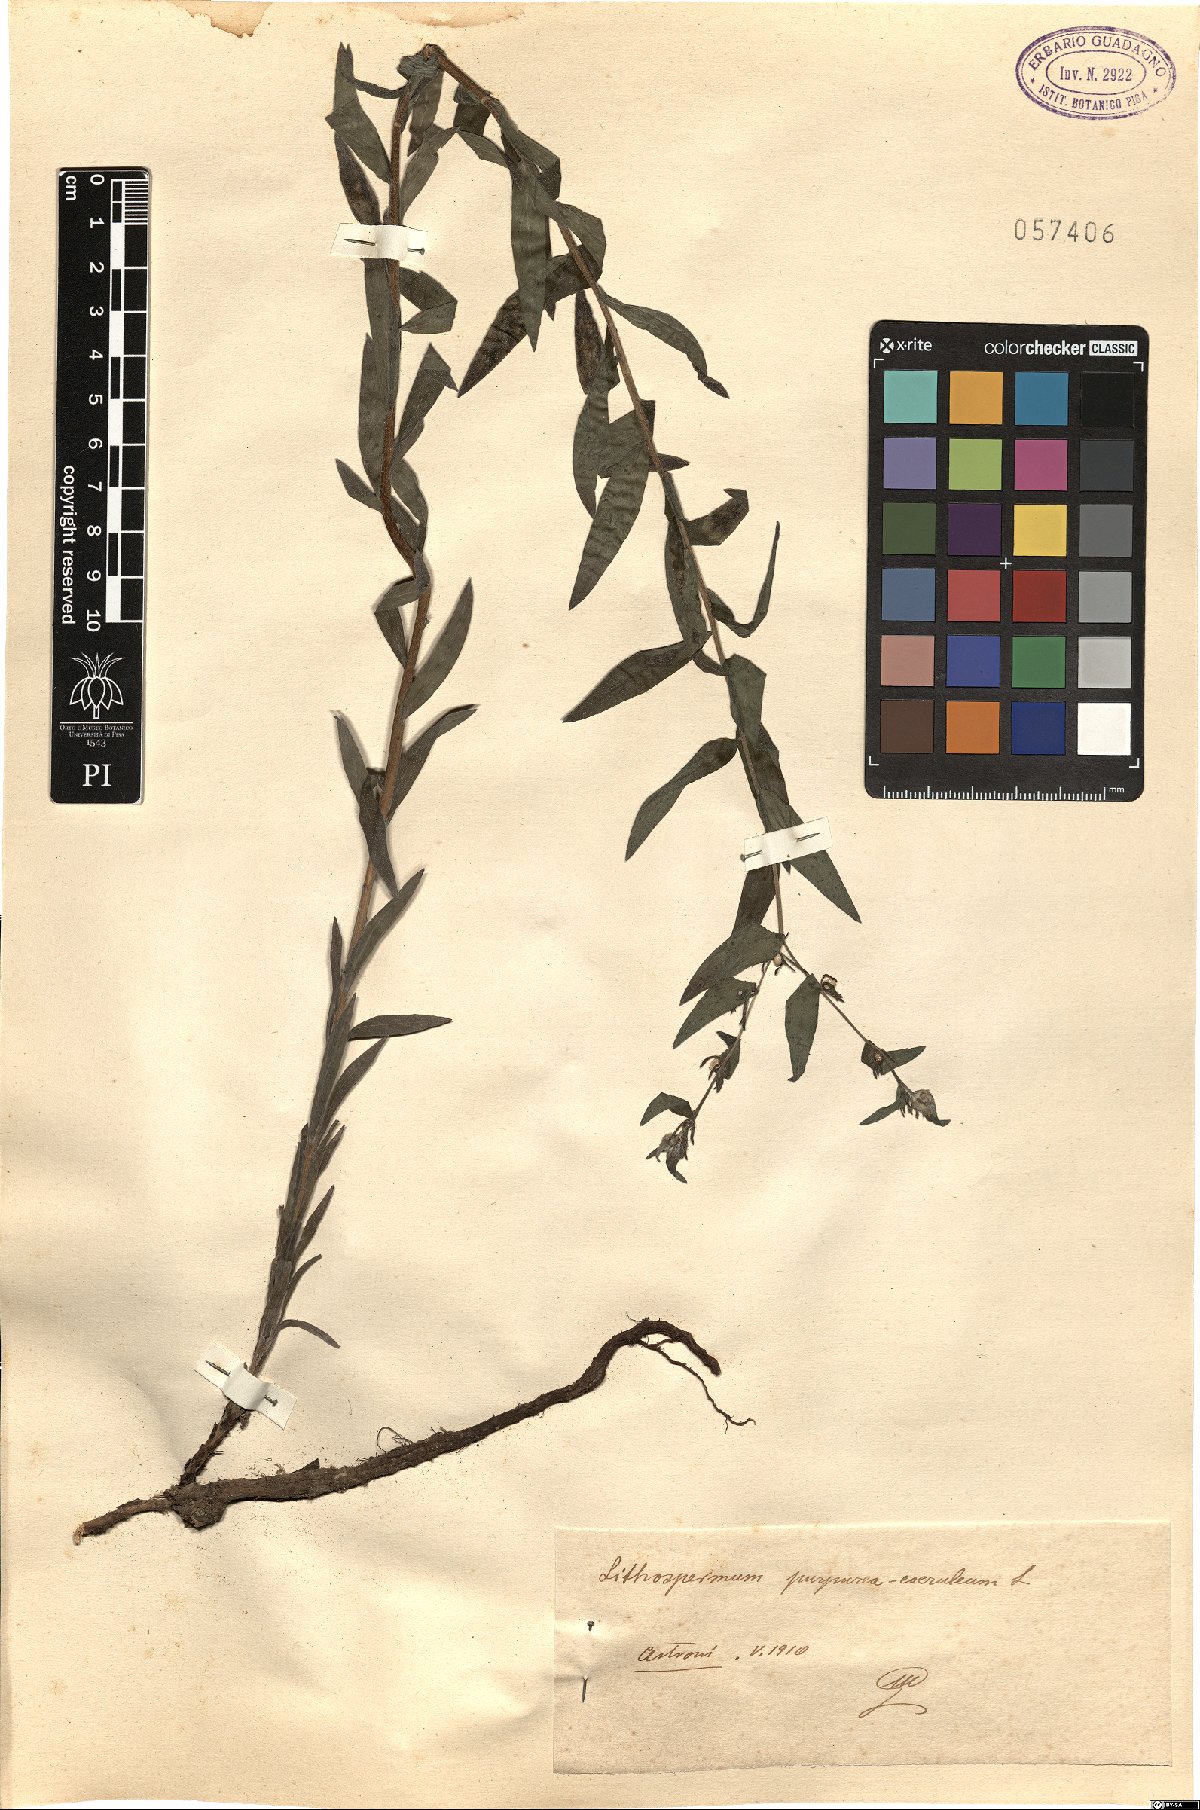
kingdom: Plantae
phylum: Tracheophyta
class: Magnoliopsida
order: Boraginales
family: Boraginaceae
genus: Aegonychon
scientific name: Aegonychon purpurocaeruleum
